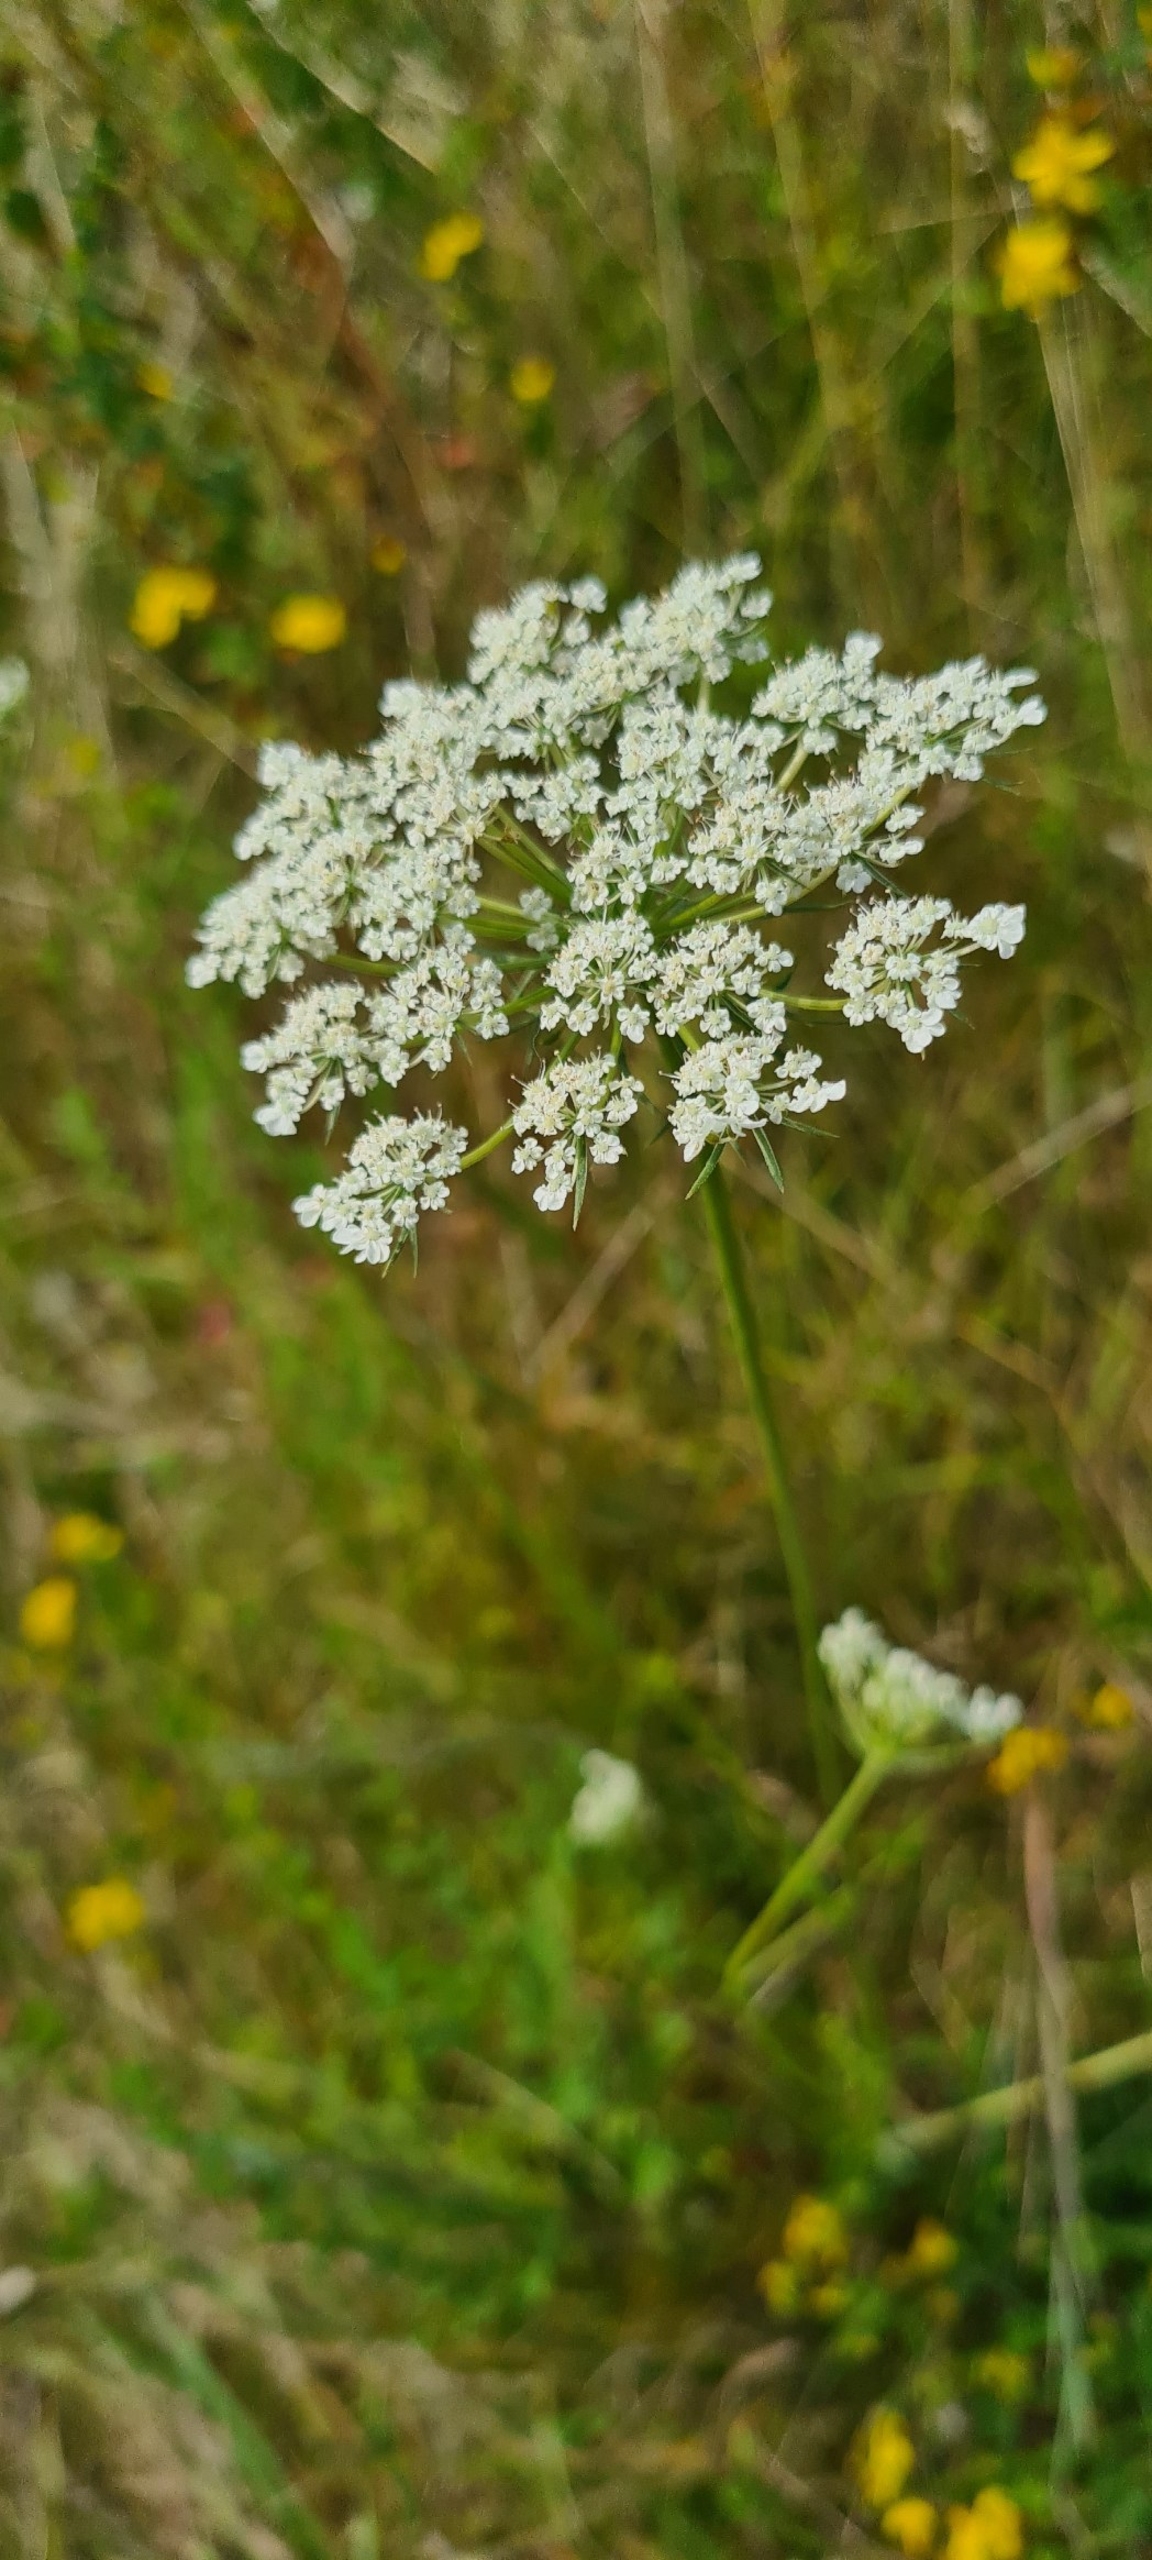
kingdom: Plantae
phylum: Tracheophyta
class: Magnoliopsida
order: Apiales
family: Apiaceae
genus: Daucus
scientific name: Daucus carota
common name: Vild gulerod
